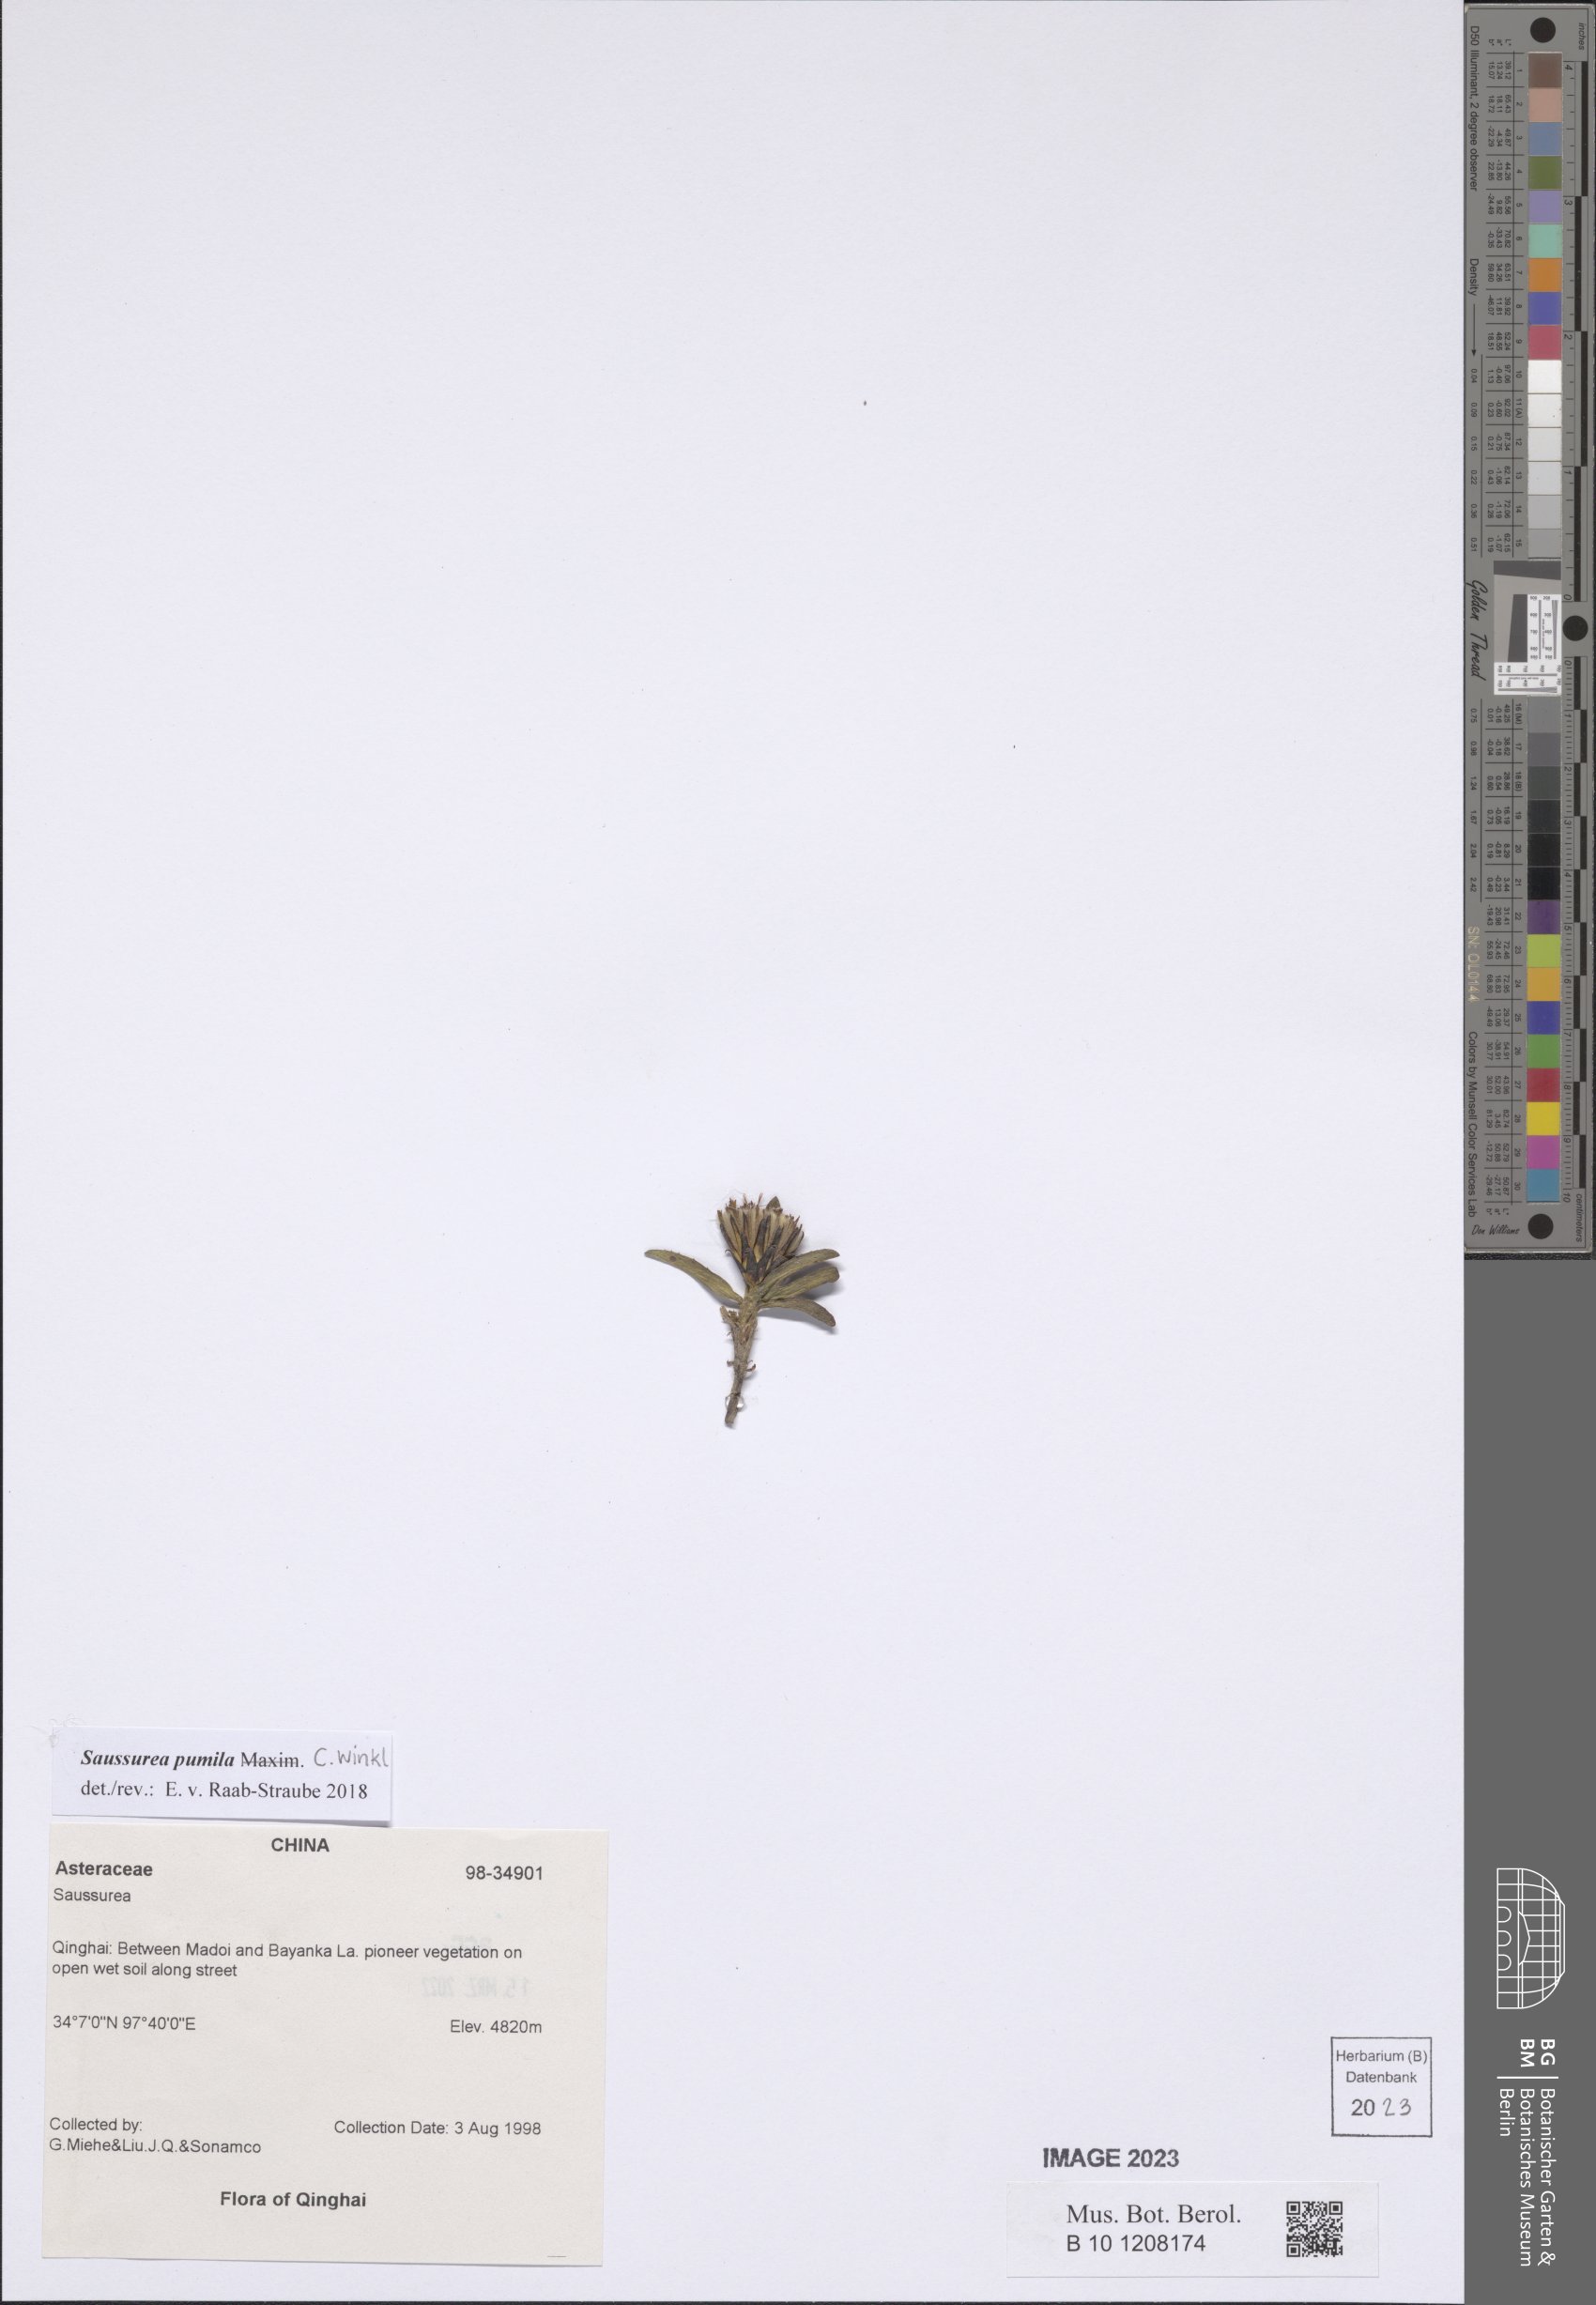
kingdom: Plantae
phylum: Tracheophyta
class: Magnoliopsida
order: Asterales
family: Asteraceae
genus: Saussurea
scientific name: Saussurea pumila
